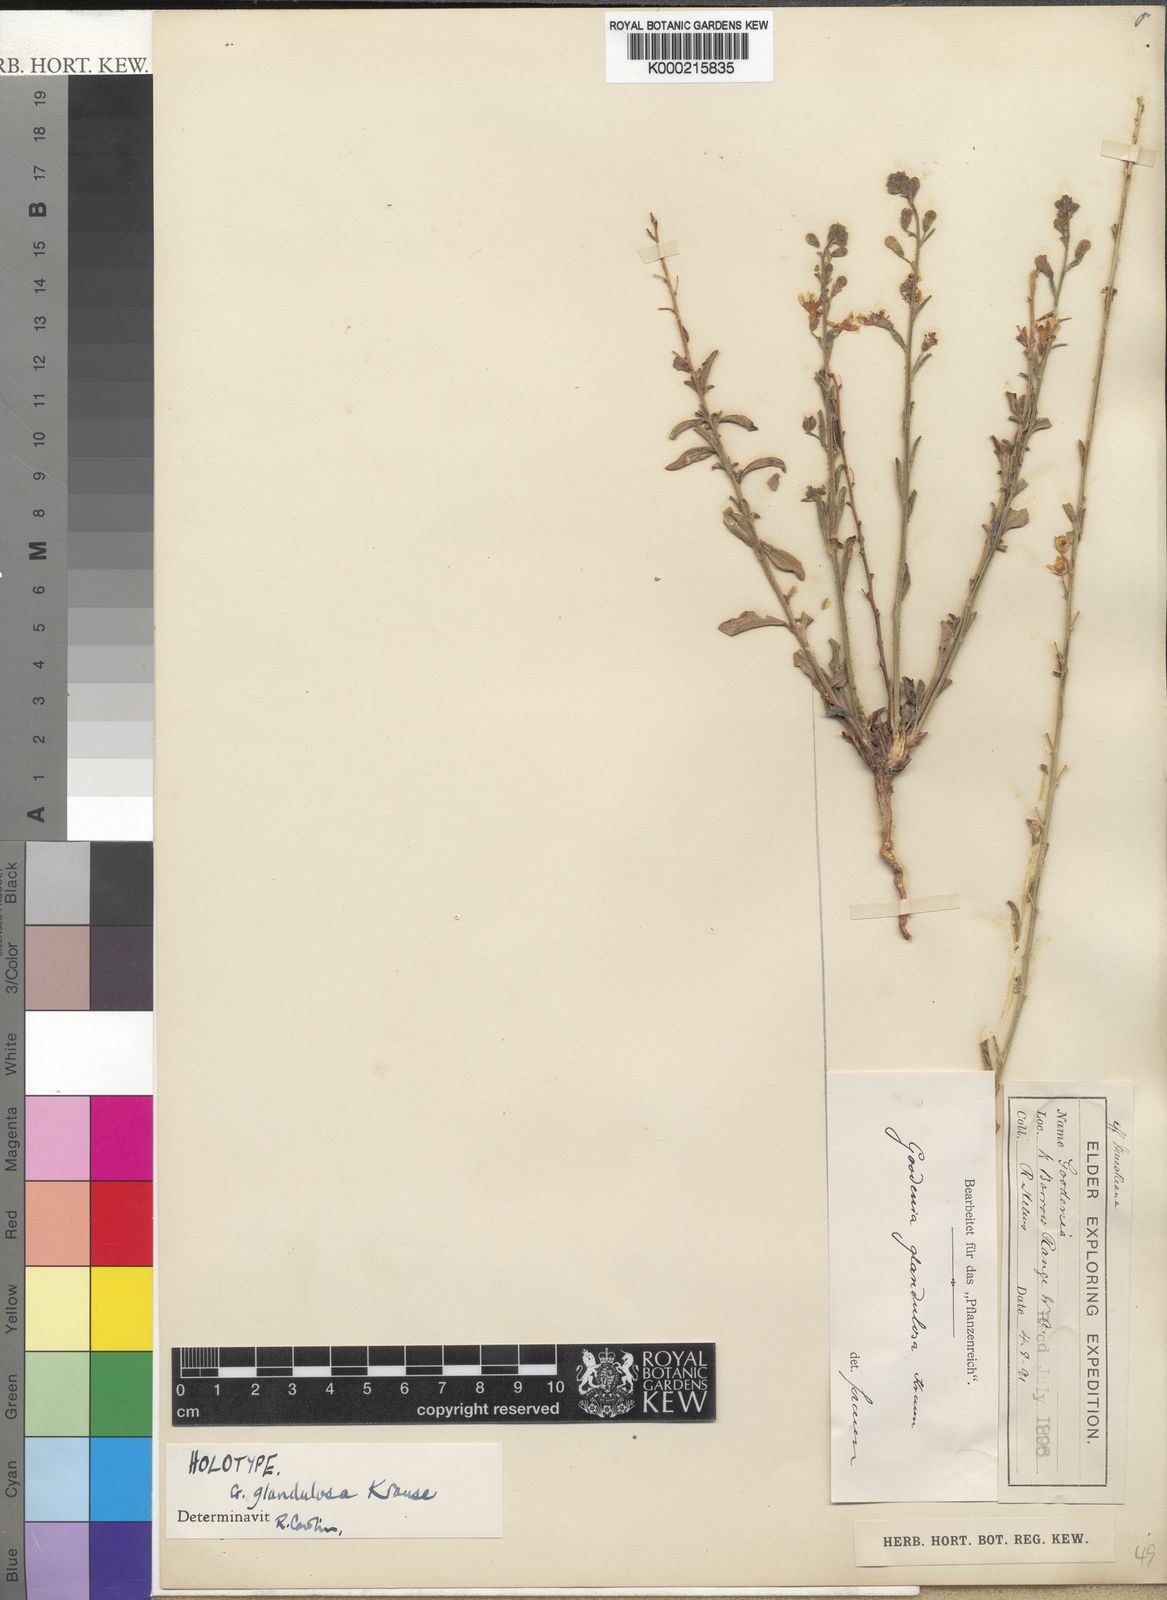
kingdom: Plantae
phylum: Tracheophyta
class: Magnoliopsida
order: Asterales
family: Goodeniaceae
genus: Goodenia
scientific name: Goodenia glandulosa
